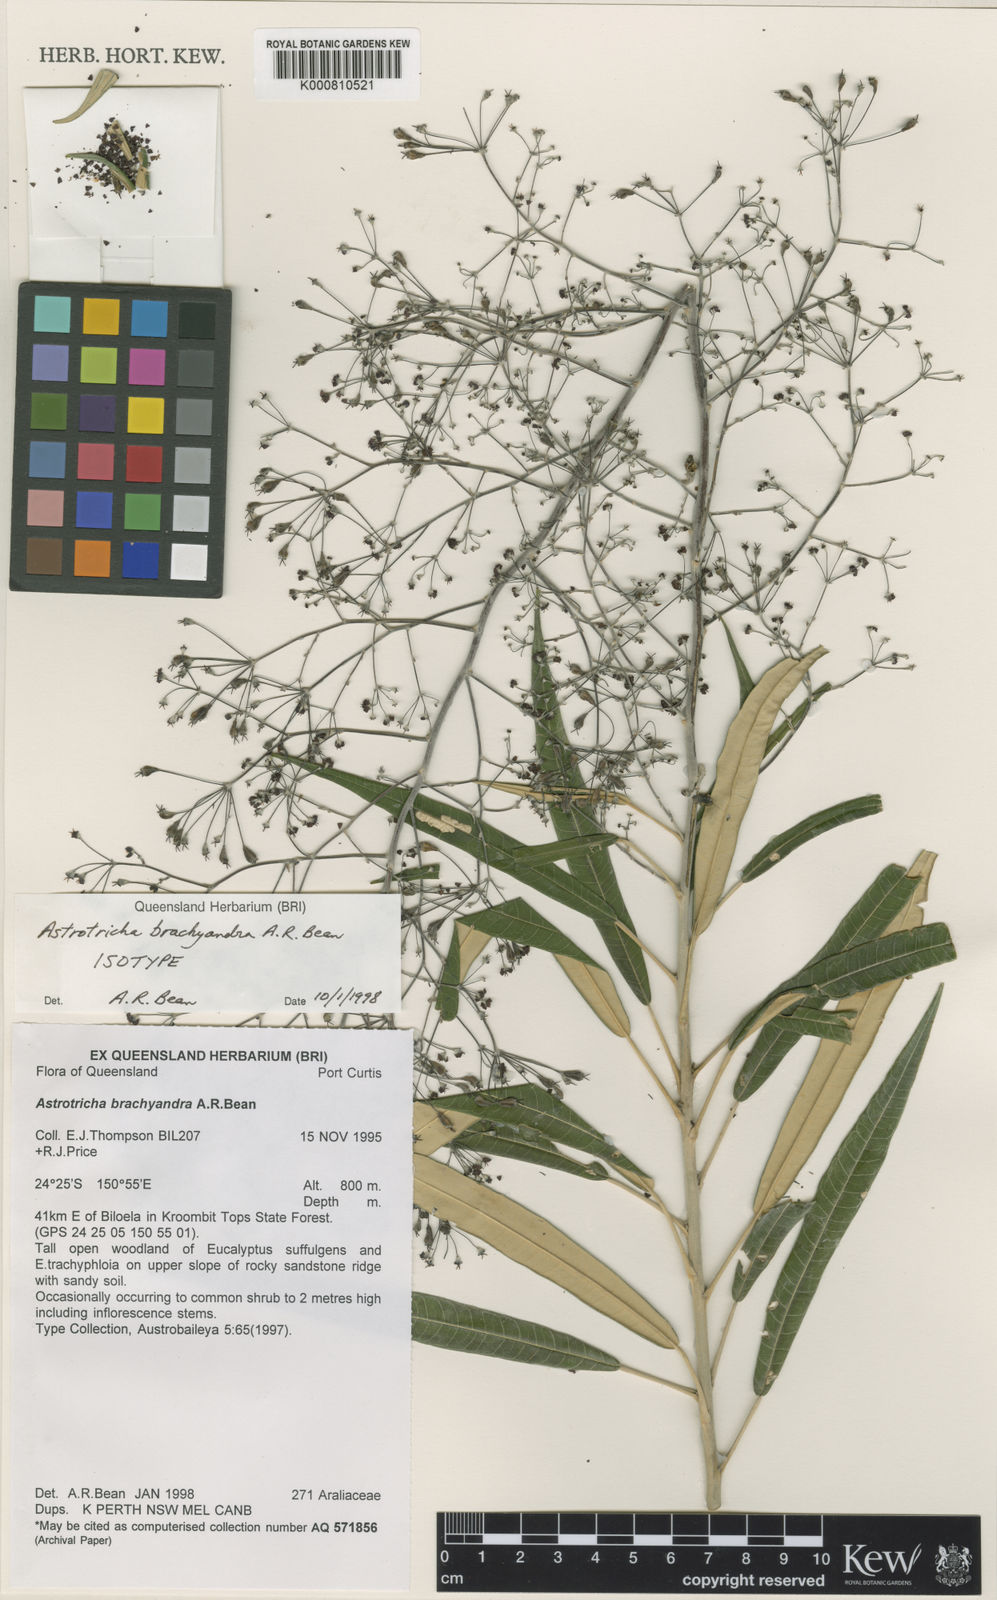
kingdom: Plantae
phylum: Tracheophyta
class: Magnoliopsida
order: Apiales
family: Araliaceae
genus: Astrotricha
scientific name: Astrotricha brachyandra
